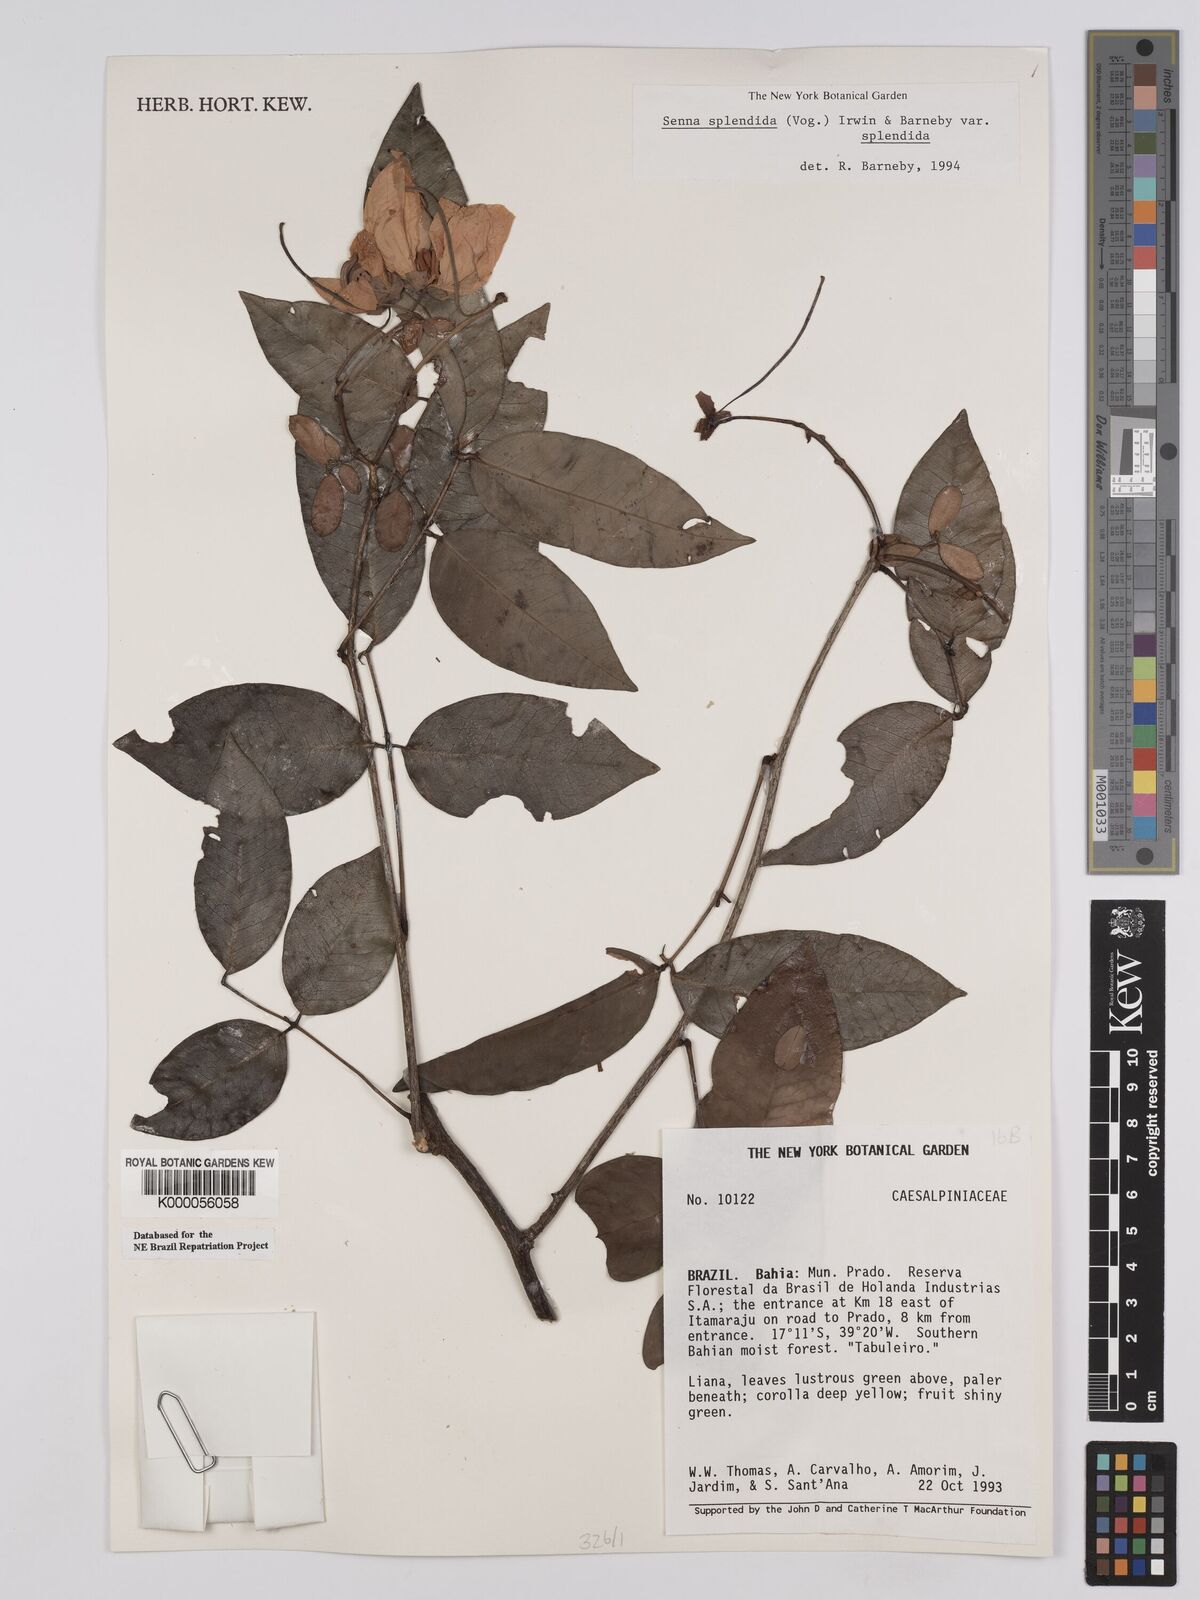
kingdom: Plantae
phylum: Tracheophyta
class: Magnoliopsida
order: Fabales
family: Fabaceae
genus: Senna
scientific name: Senna splendida
